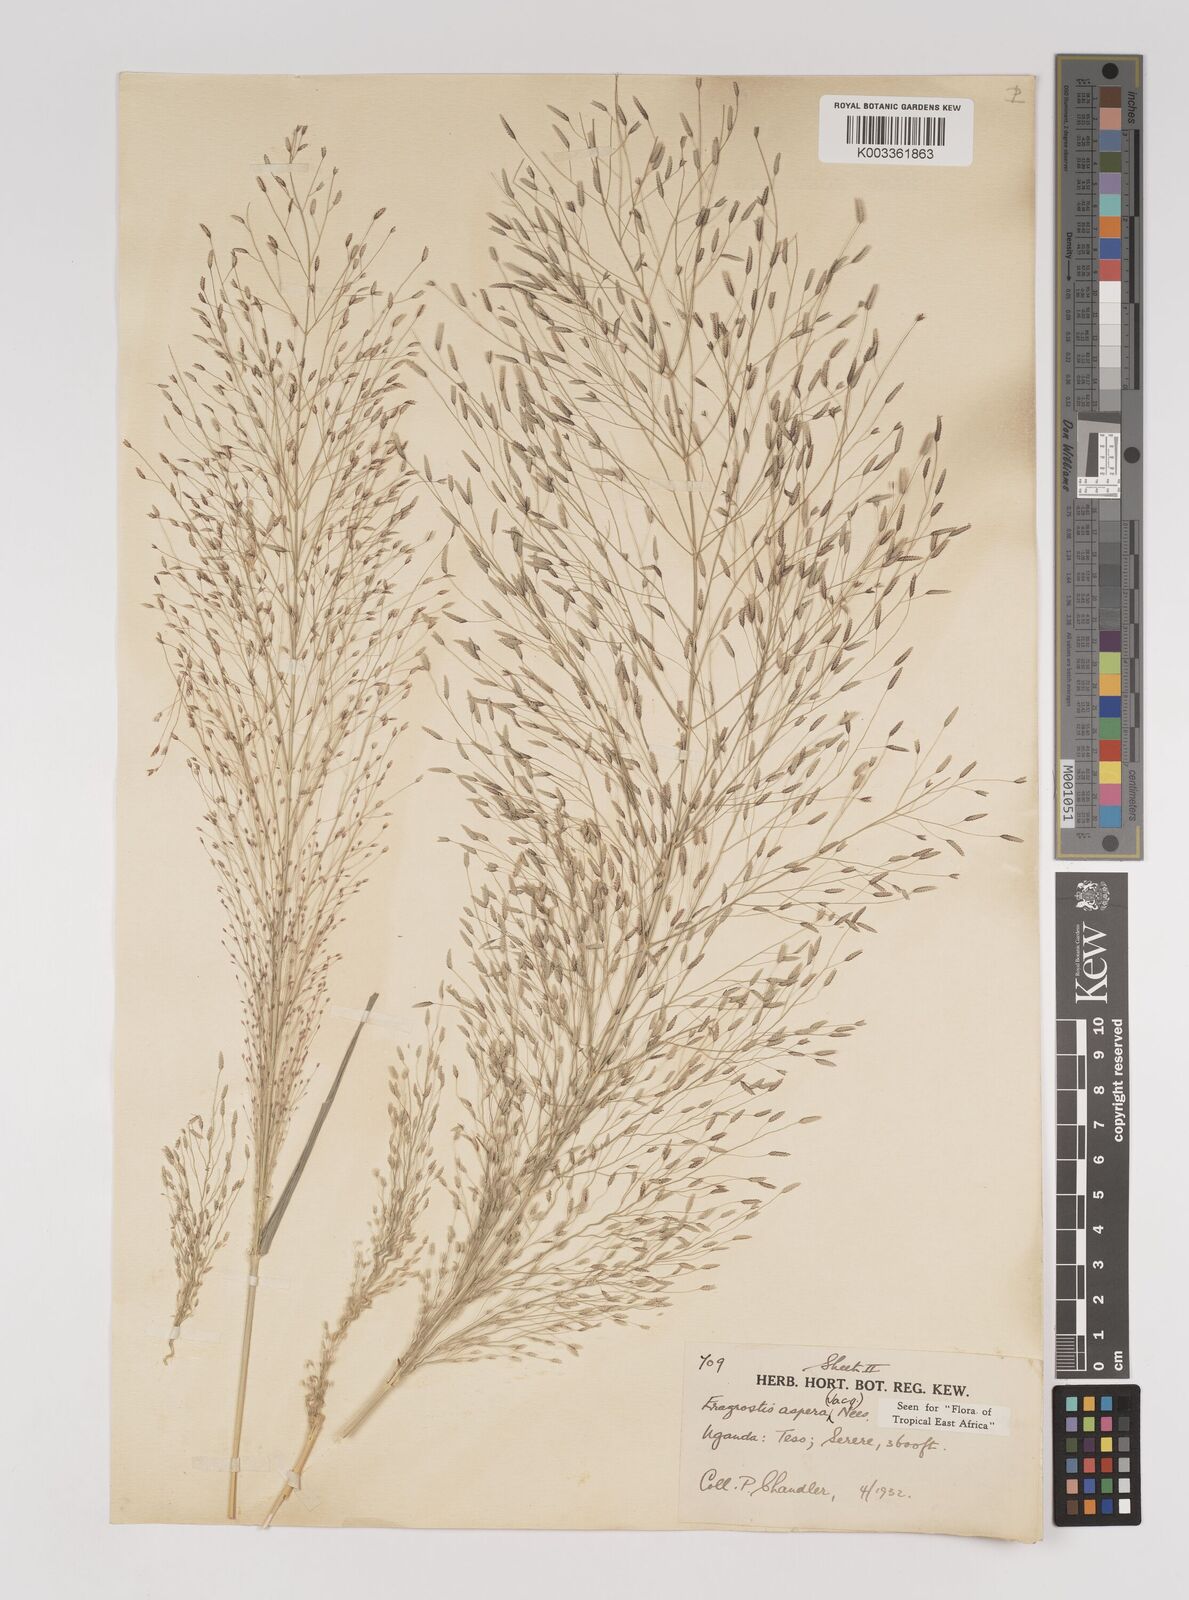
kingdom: Plantae
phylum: Tracheophyta
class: Liliopsida
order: Poales
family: Poaceae
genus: Eragrostis
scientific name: Eragrostis aspera
